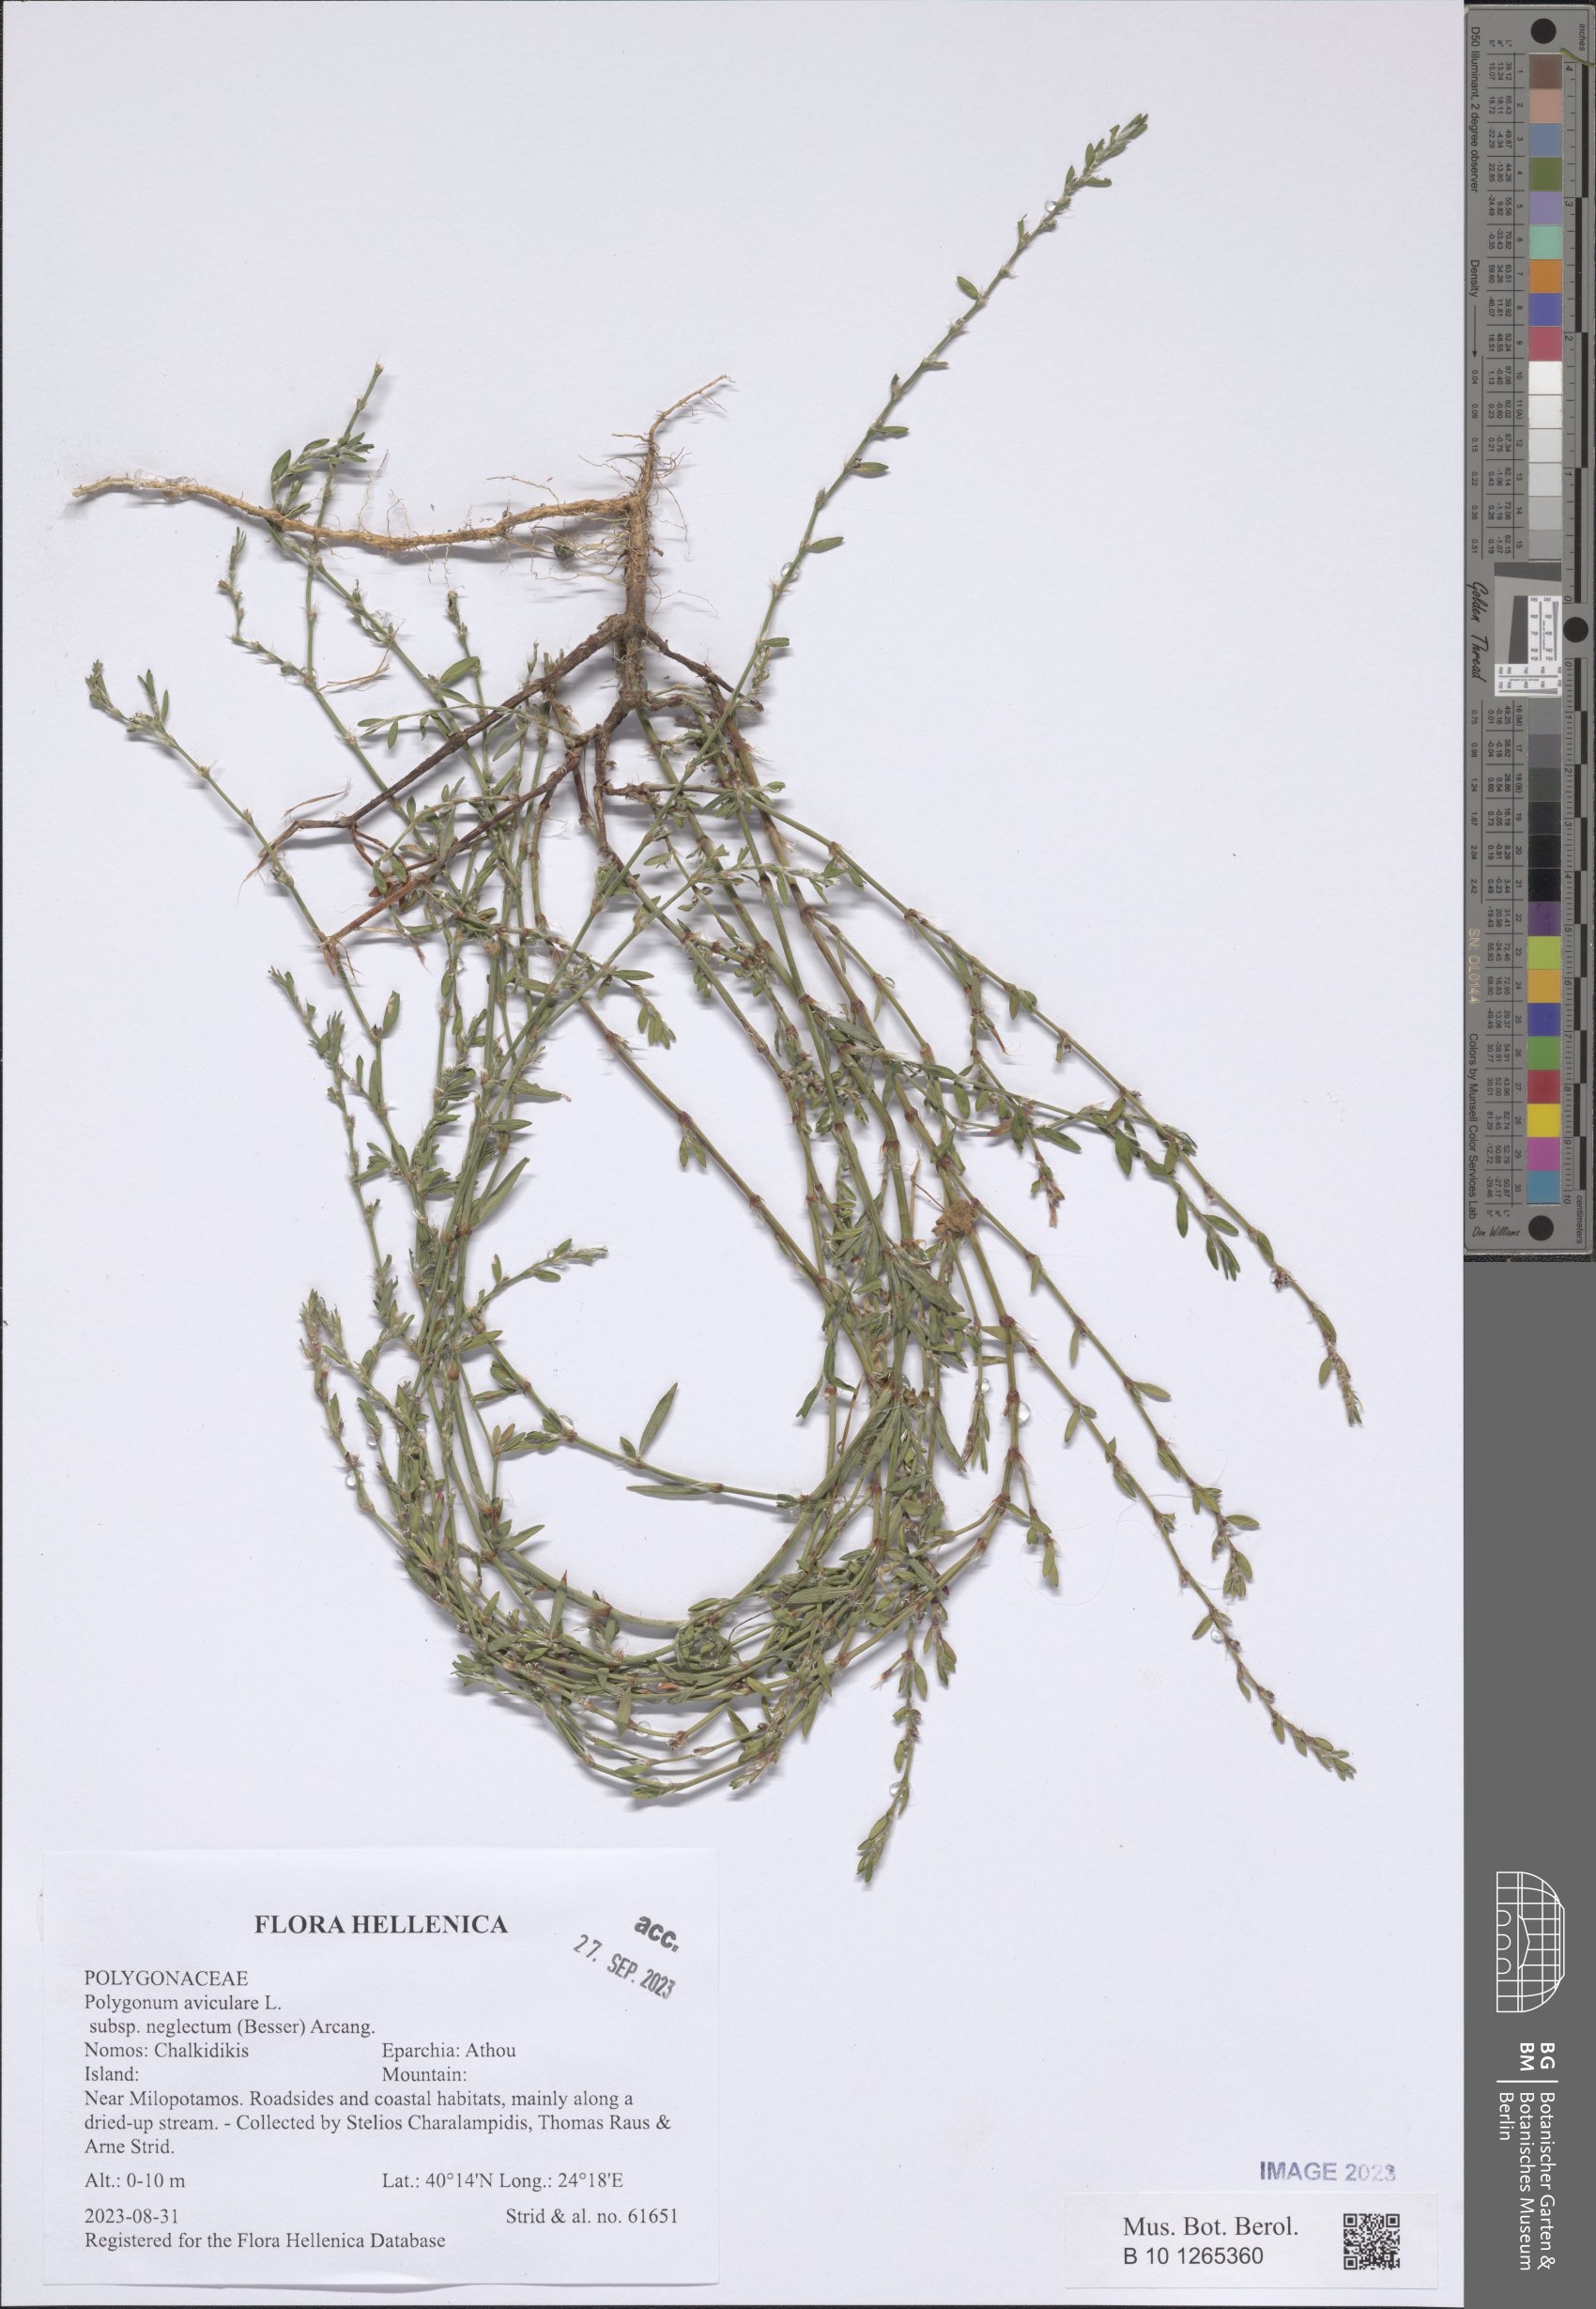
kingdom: Plantae
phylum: Tracheophyta
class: Magnoliopsida
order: Caryophyllales
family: Polygonaceae
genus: Polygonum
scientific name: Polygonum aviculare
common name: Prostrate knotweed
